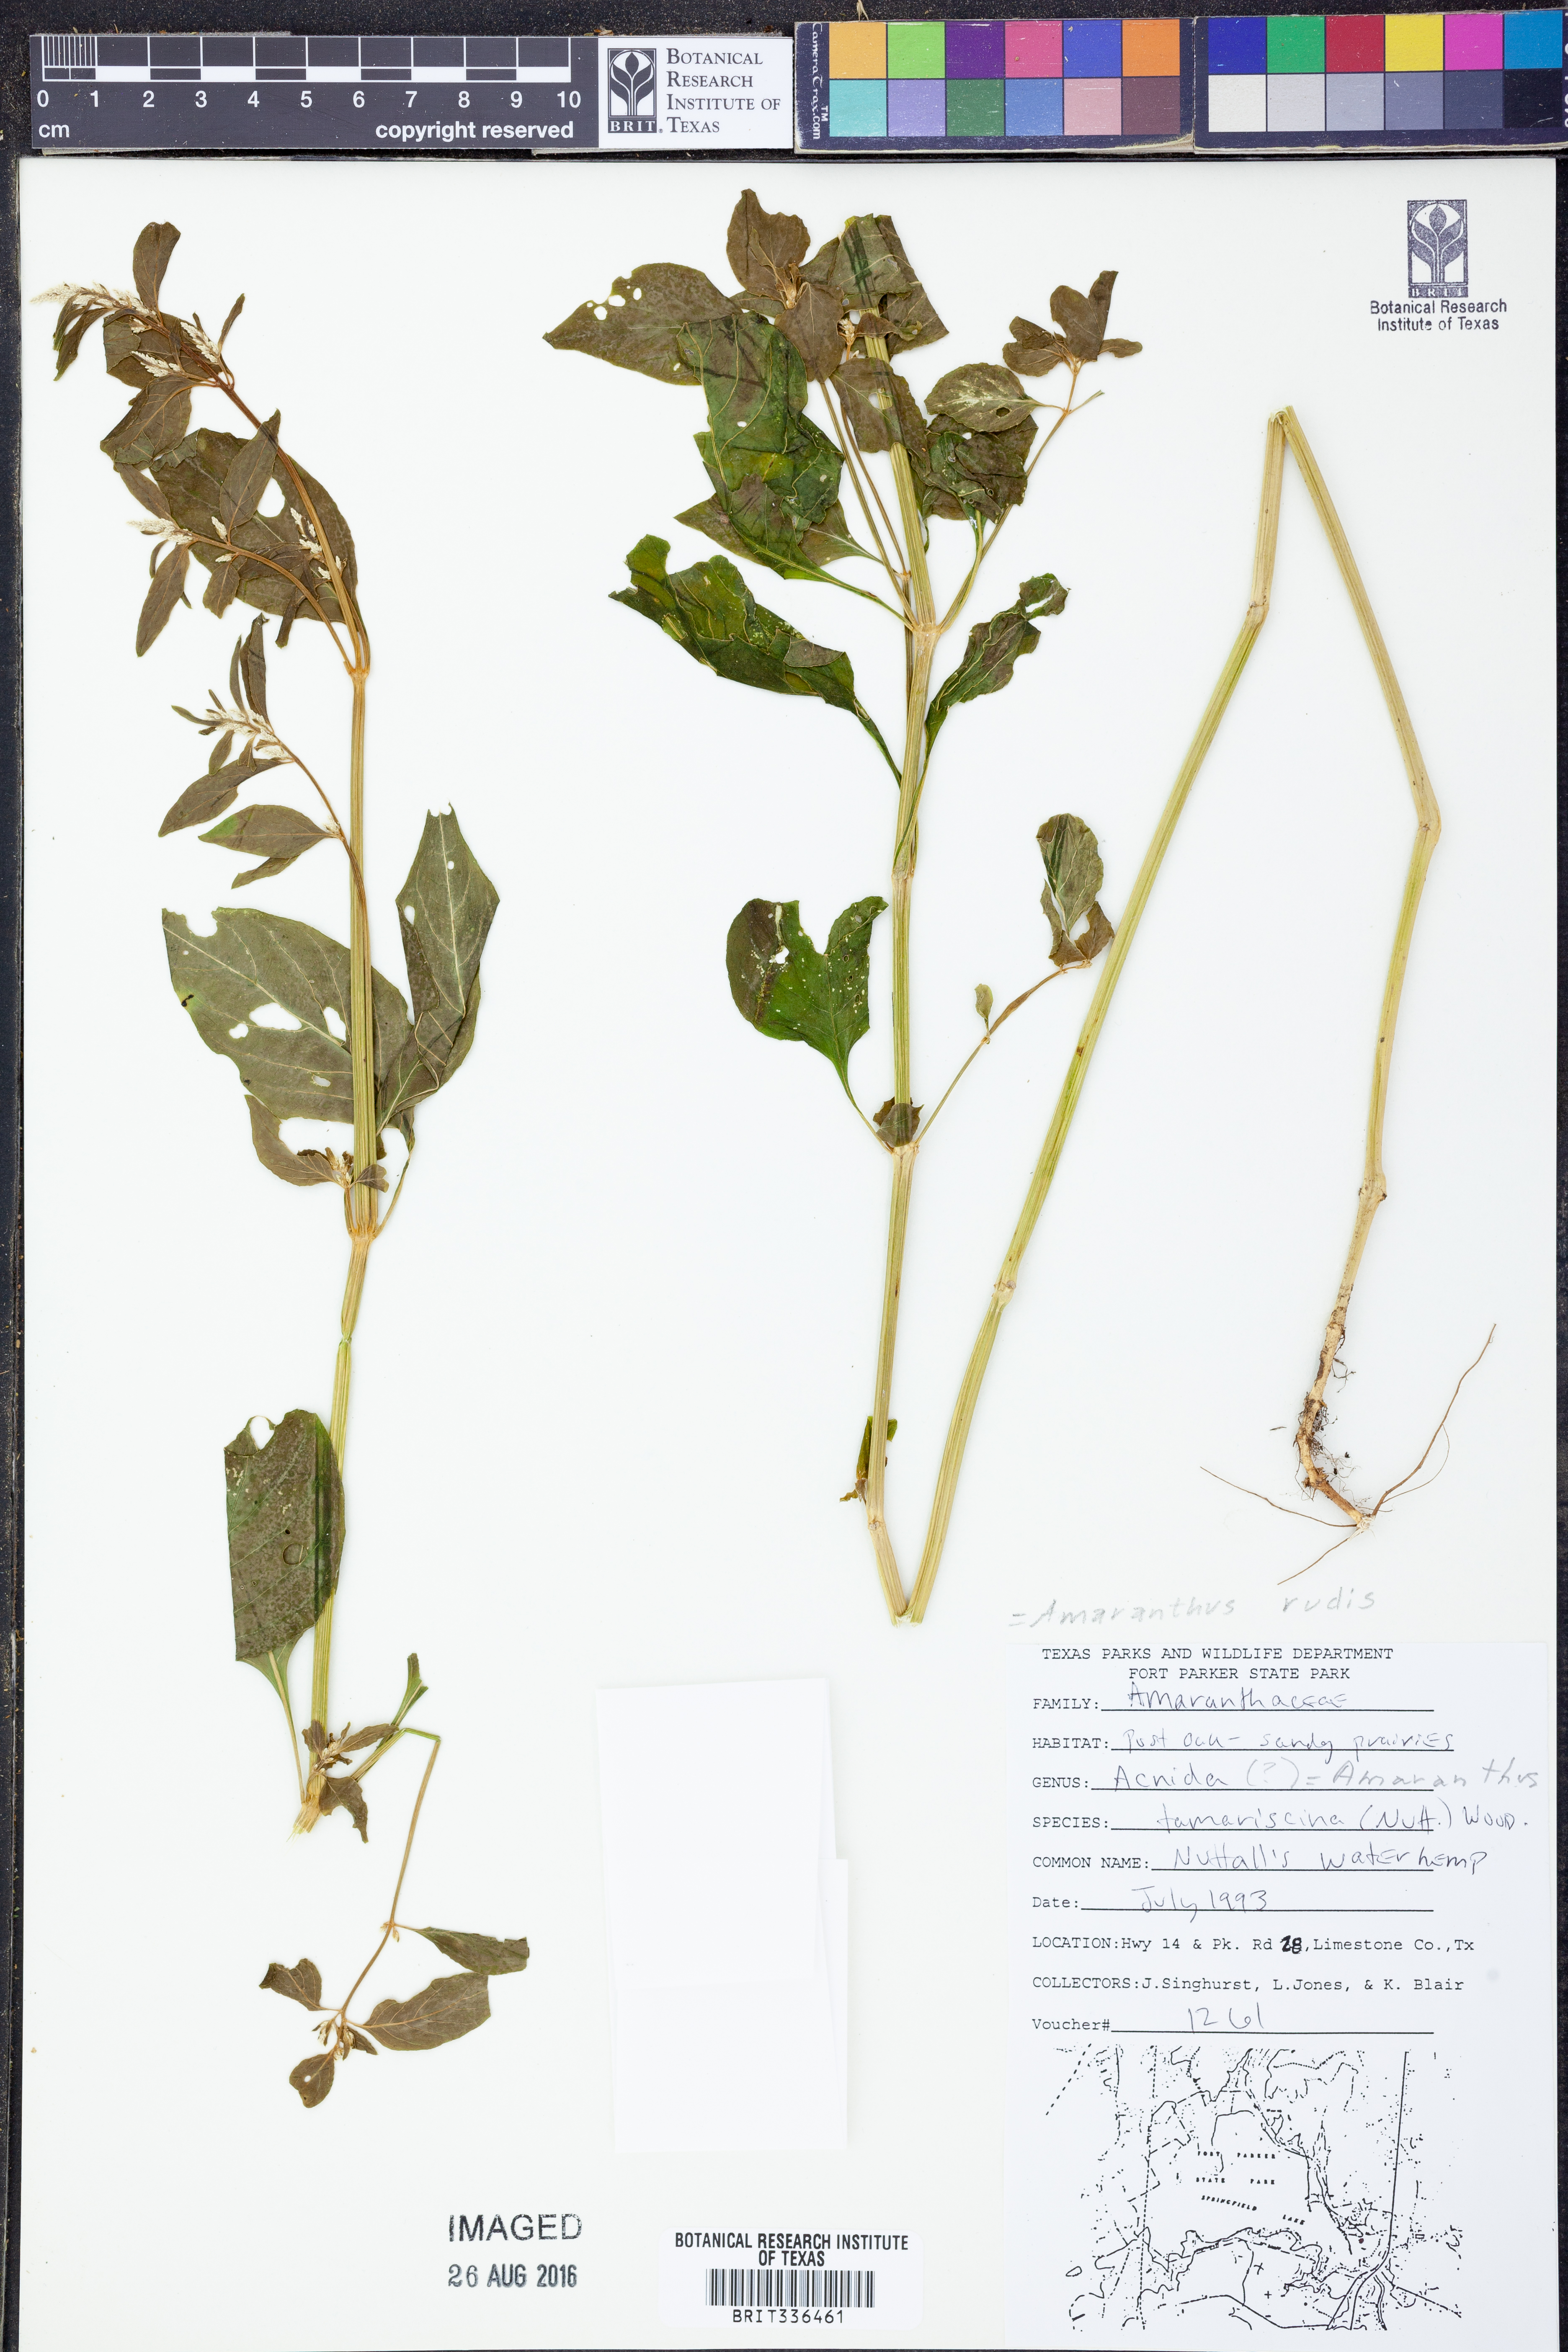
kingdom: Plantae
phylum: Tracheophyta
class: Magnoliopsida
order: Caryophyllales
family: Amaranthaceae
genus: Amaranthus
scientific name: Amaranthus tuberculatus
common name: Rough-fruit amaranth
